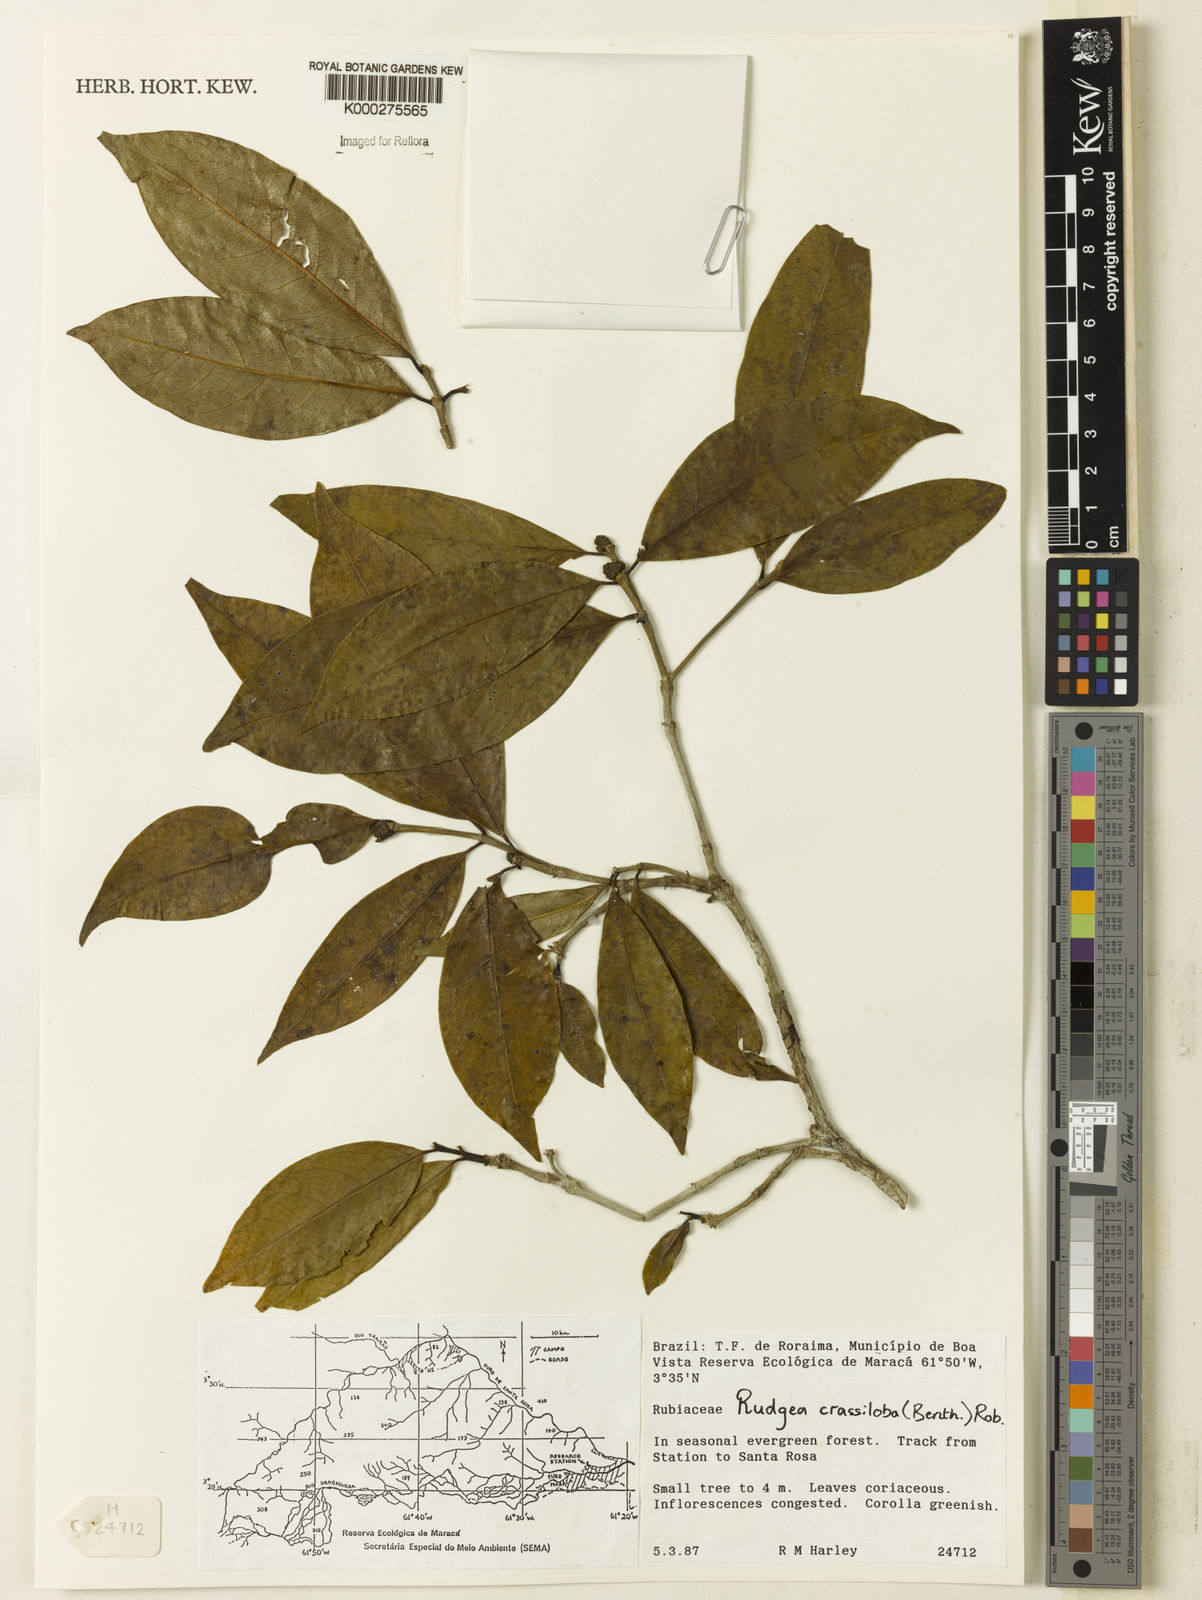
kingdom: Plantae
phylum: Tracheophyta
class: Magnoliopsida
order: Gentianales
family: Rubiaceae
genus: Rudgea
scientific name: Rudgea crassiloba
